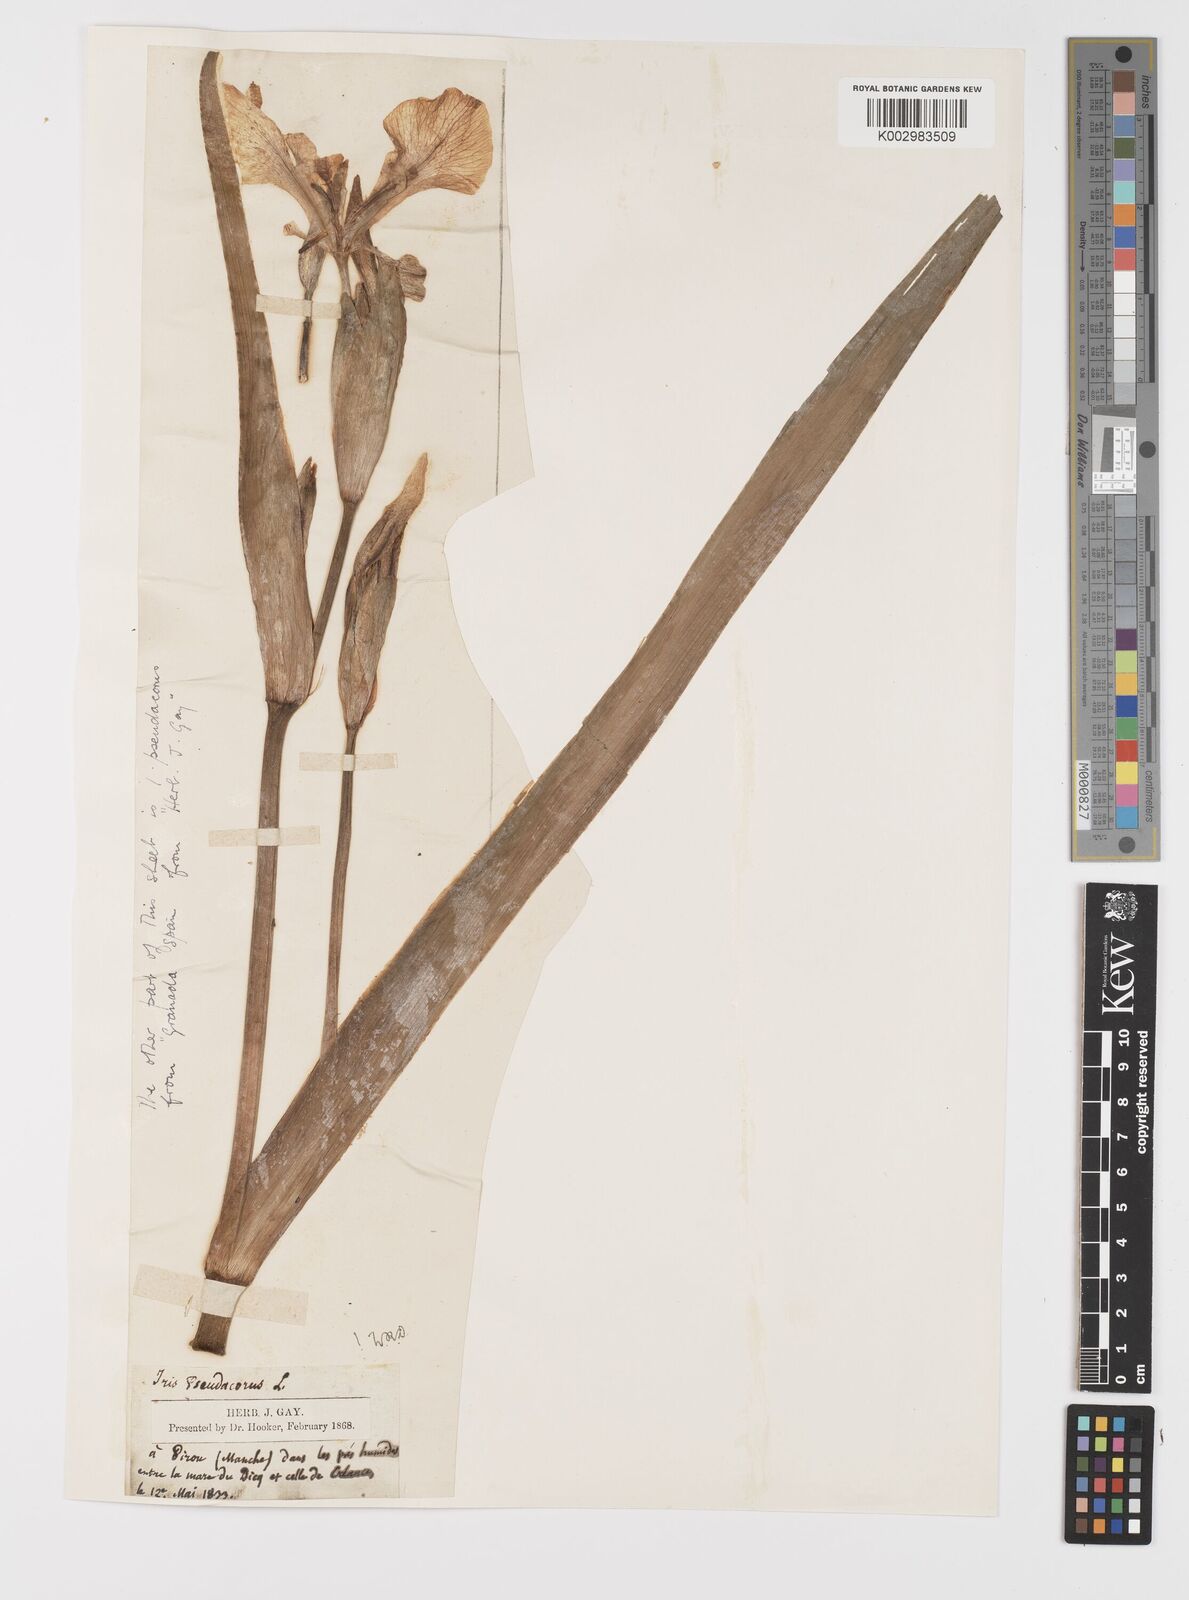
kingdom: Plantae
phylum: Tracheophyta
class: Liliopsida
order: Asparagales
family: Iridaceae
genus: Iris
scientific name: Iris pseudacorus
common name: Yellow flag
